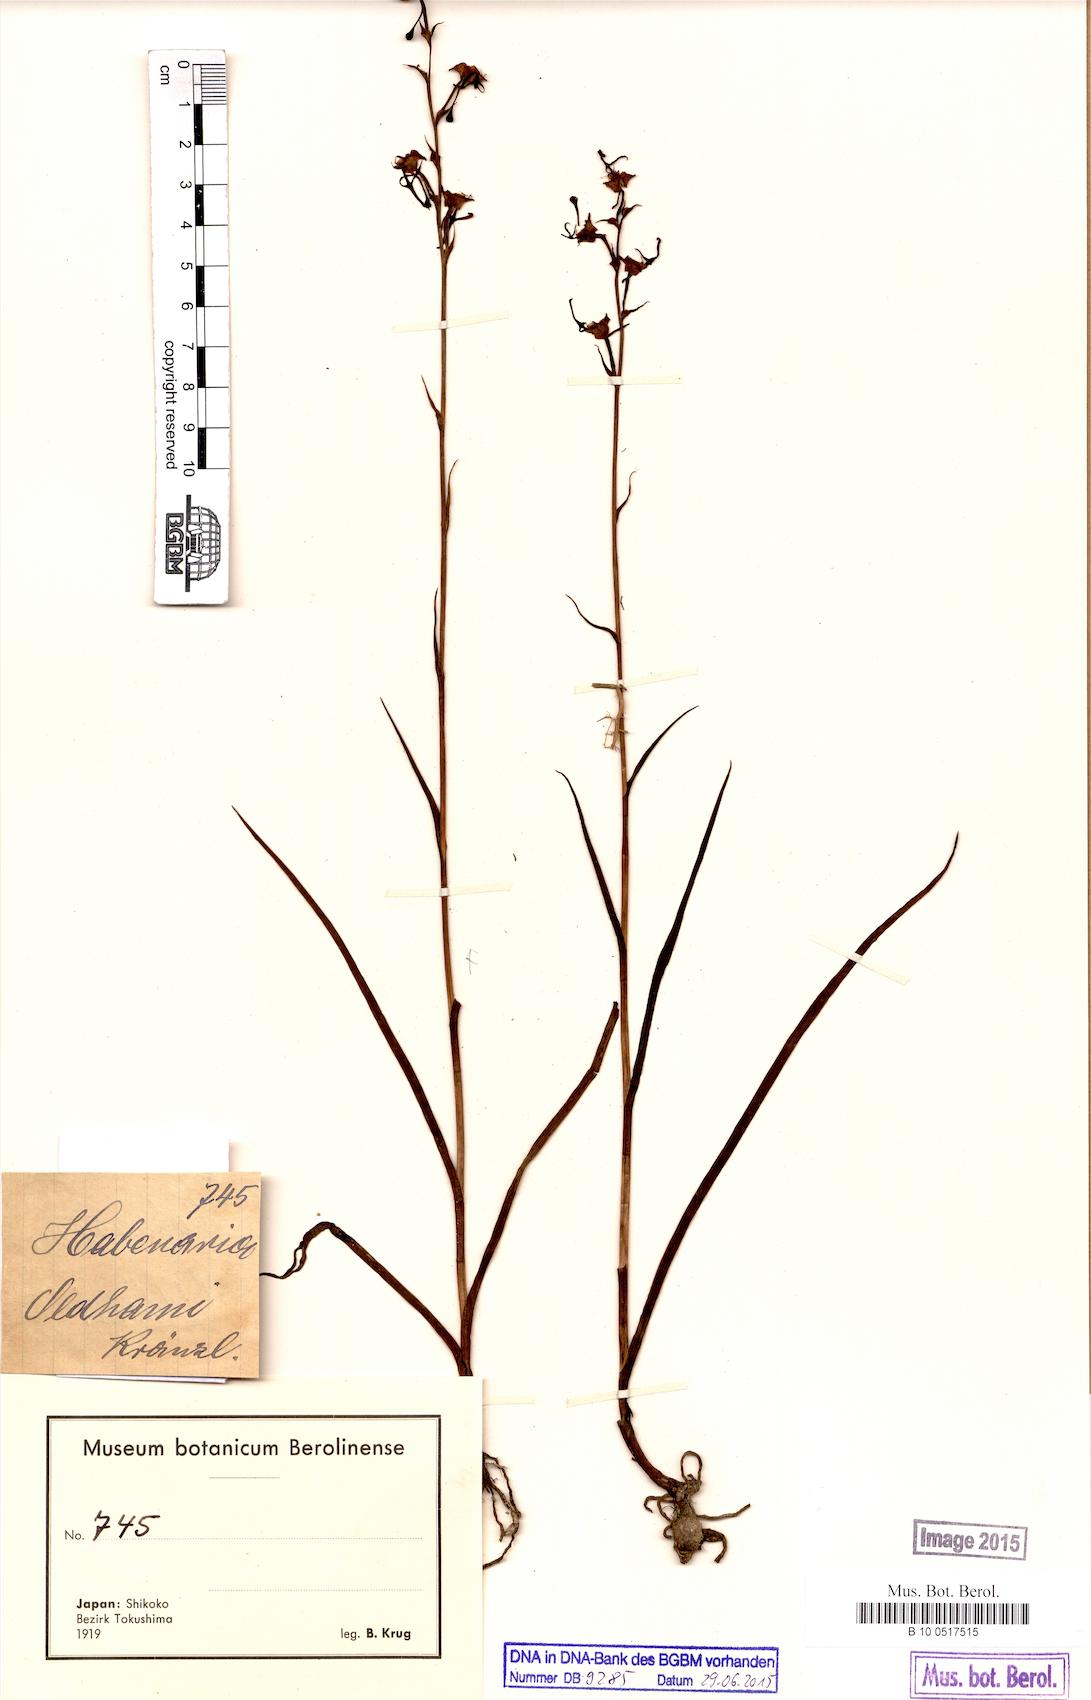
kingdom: Plantae
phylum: Tracheophyta
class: Liliopsida
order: Asparagales
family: Orchidaceae
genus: Habenaria
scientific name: Habenaria sagittifera
